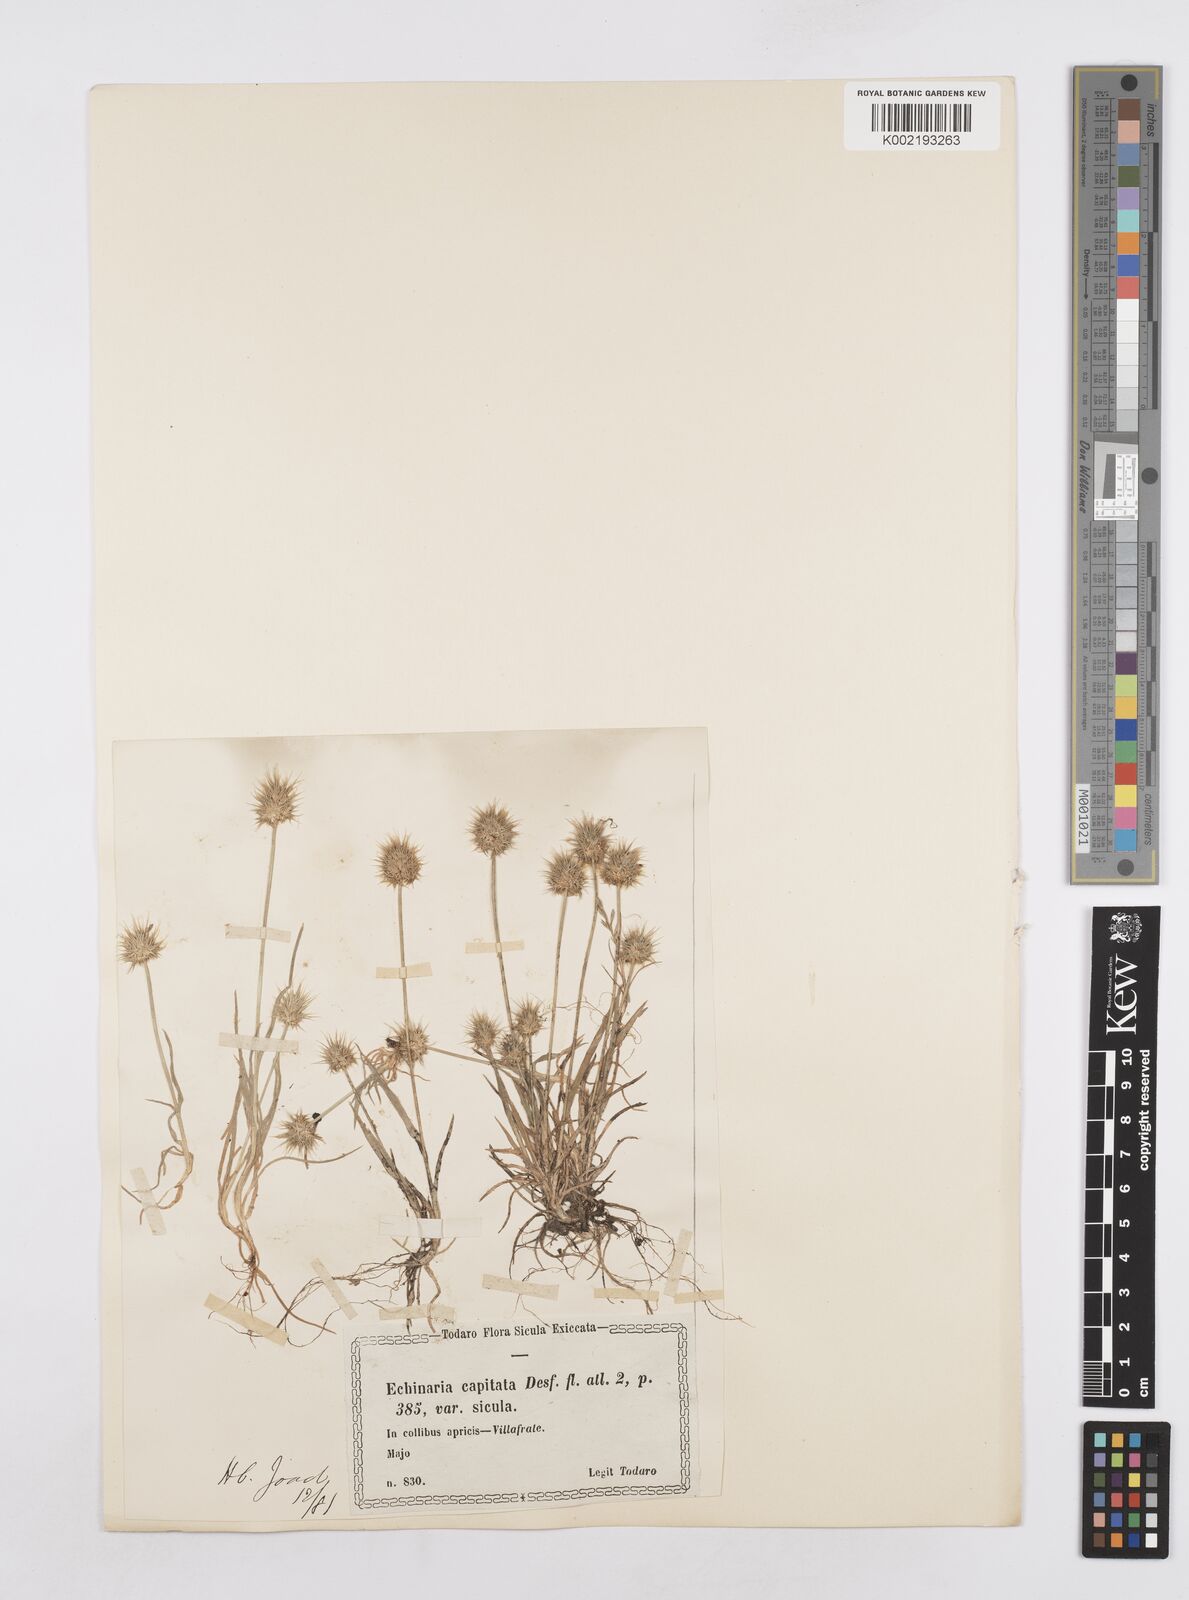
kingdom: Plantae
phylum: Tracheophyta
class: Liliopsida
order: Poales
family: Poaceae
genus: Echinaria
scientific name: Echinaria capitata
